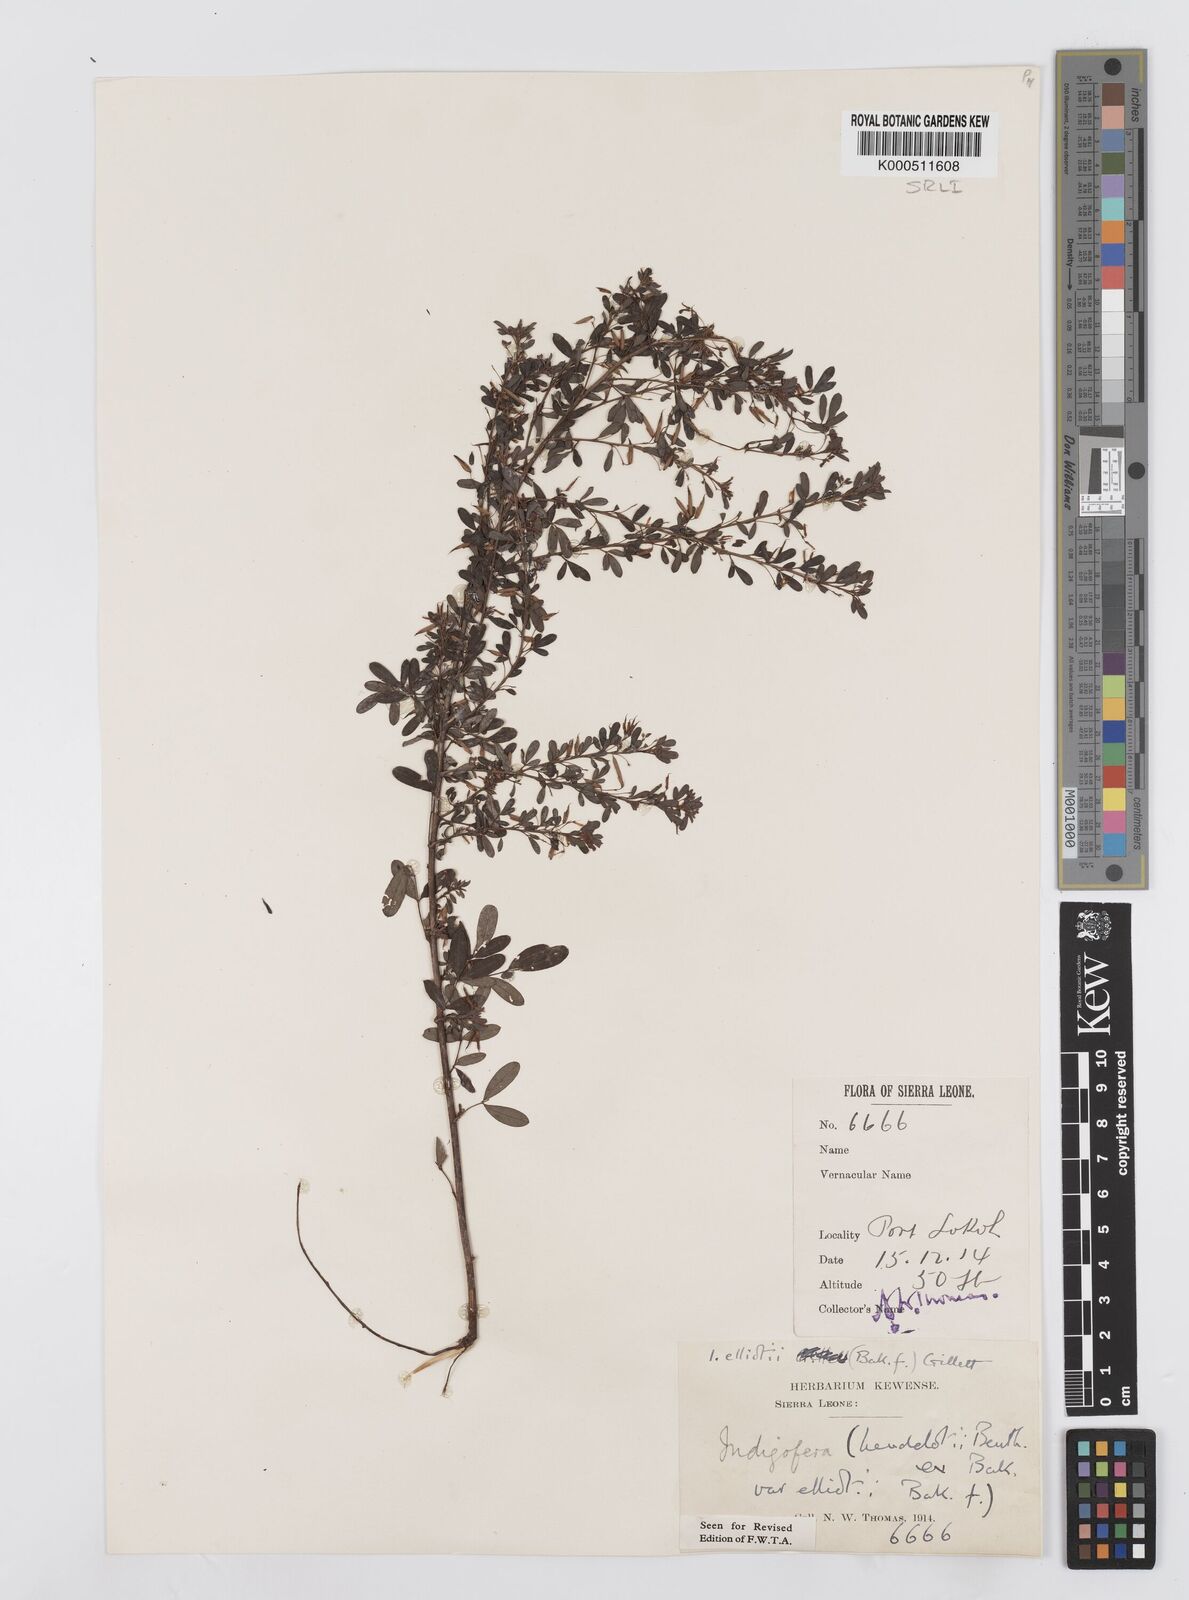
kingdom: Plantae
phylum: Tracheophyta
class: Magnoliopsida
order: Fabales
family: Fabaceae
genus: Indigofera
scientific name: Indigofera elliotii
